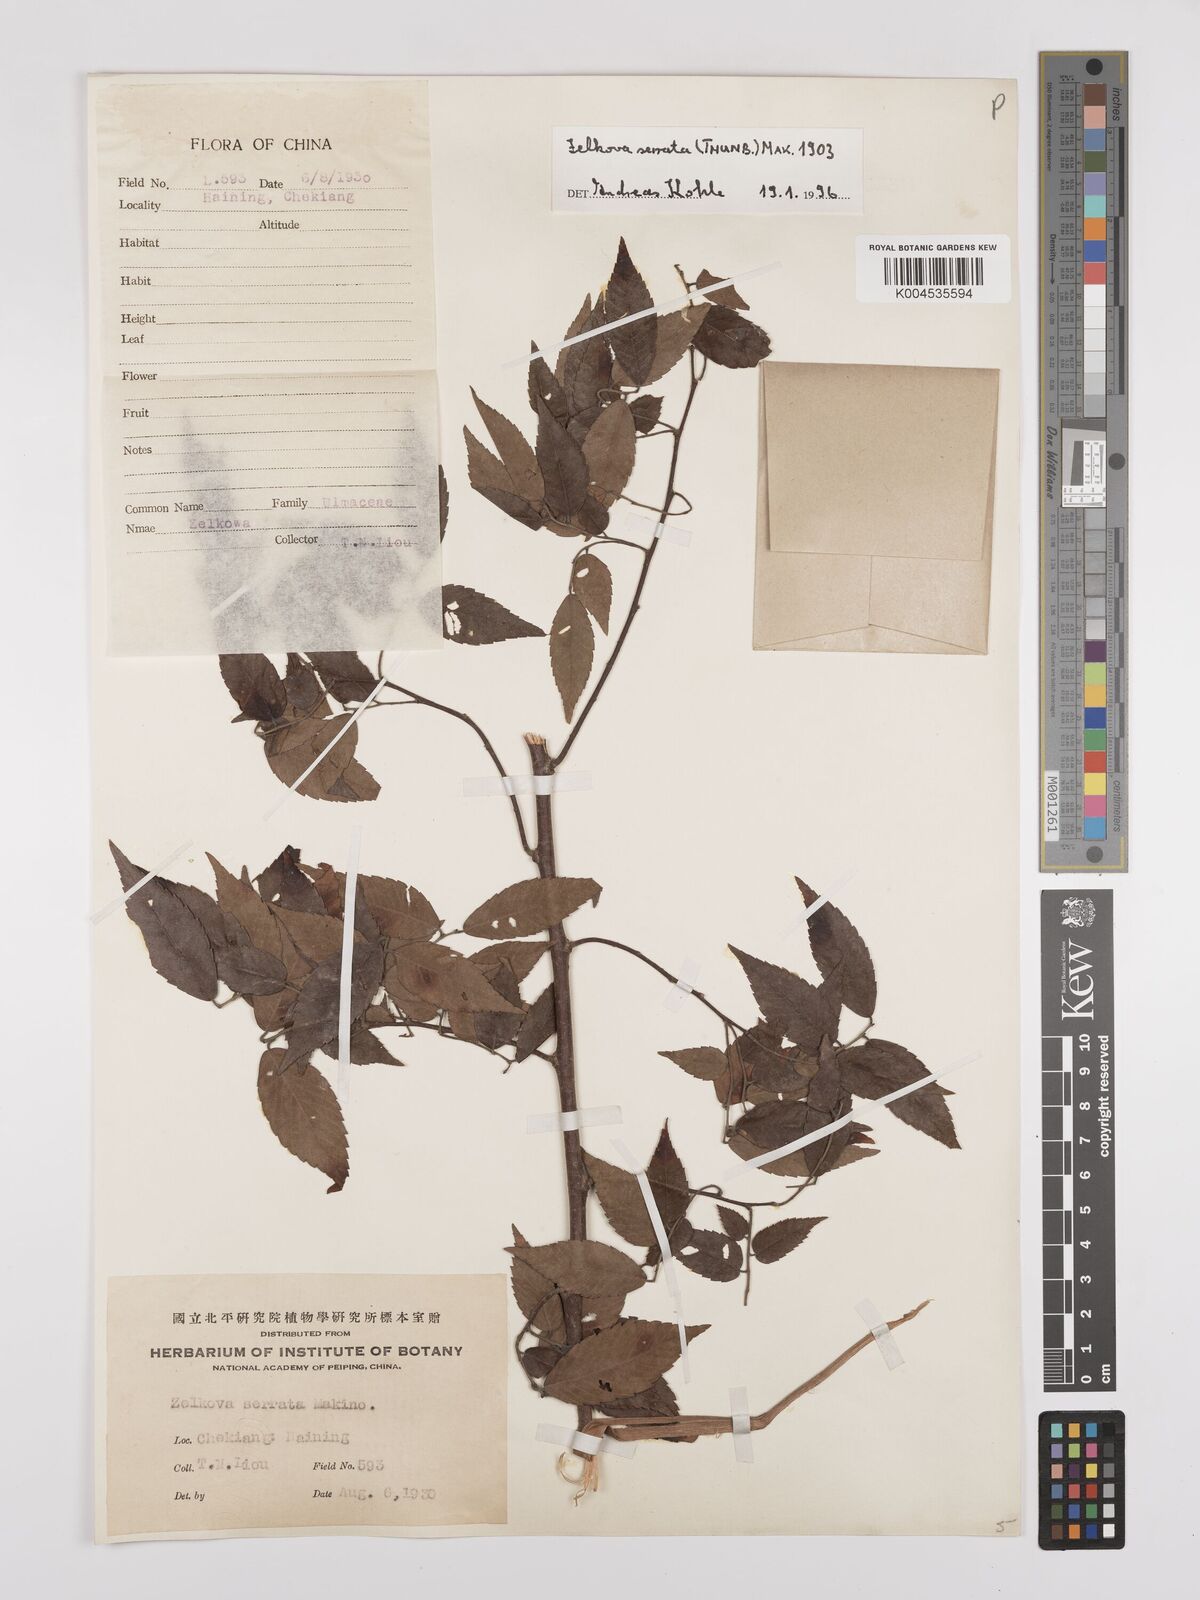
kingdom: Plantae
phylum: Tracheophyta
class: Magnoliopsida
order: Rosales
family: Ulmaceae
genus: Zelkova
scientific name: Zelkova serrata
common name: Japanese zelkova
